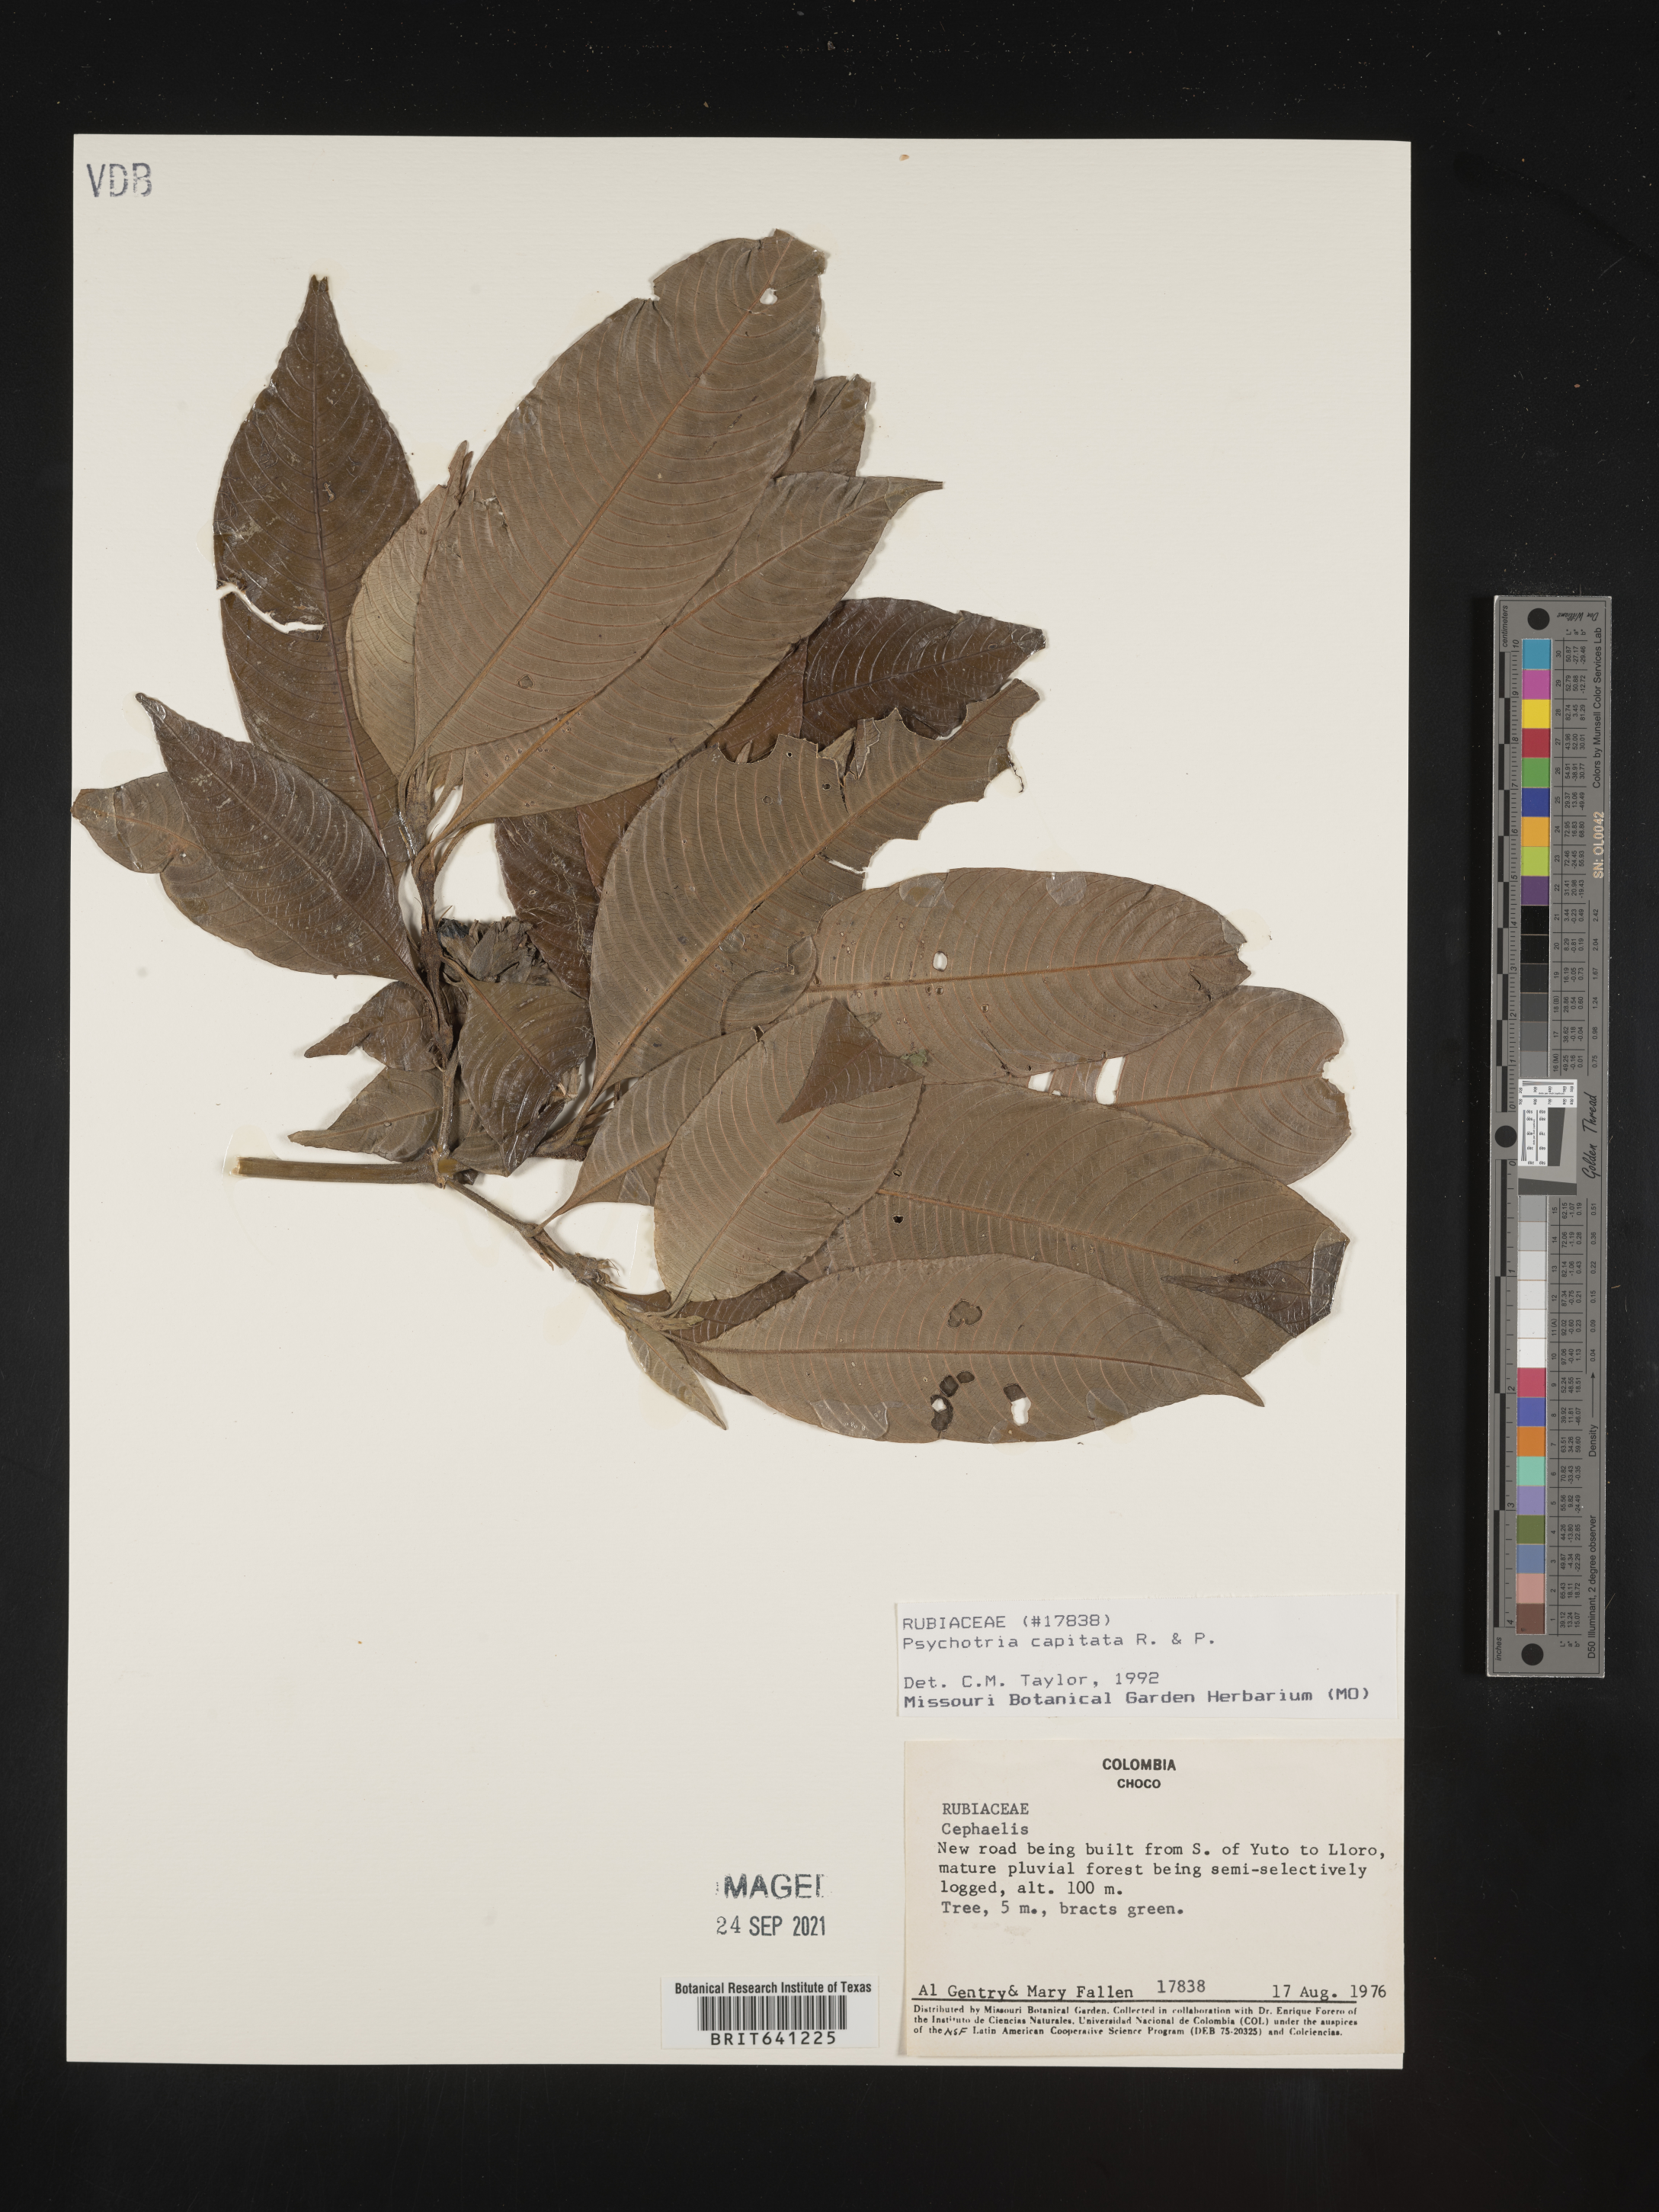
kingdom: Plantae
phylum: Tracheophyta
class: Magnoliopsida
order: Gentianales
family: Rubiaceae
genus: Psychotria
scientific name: Psychotria
